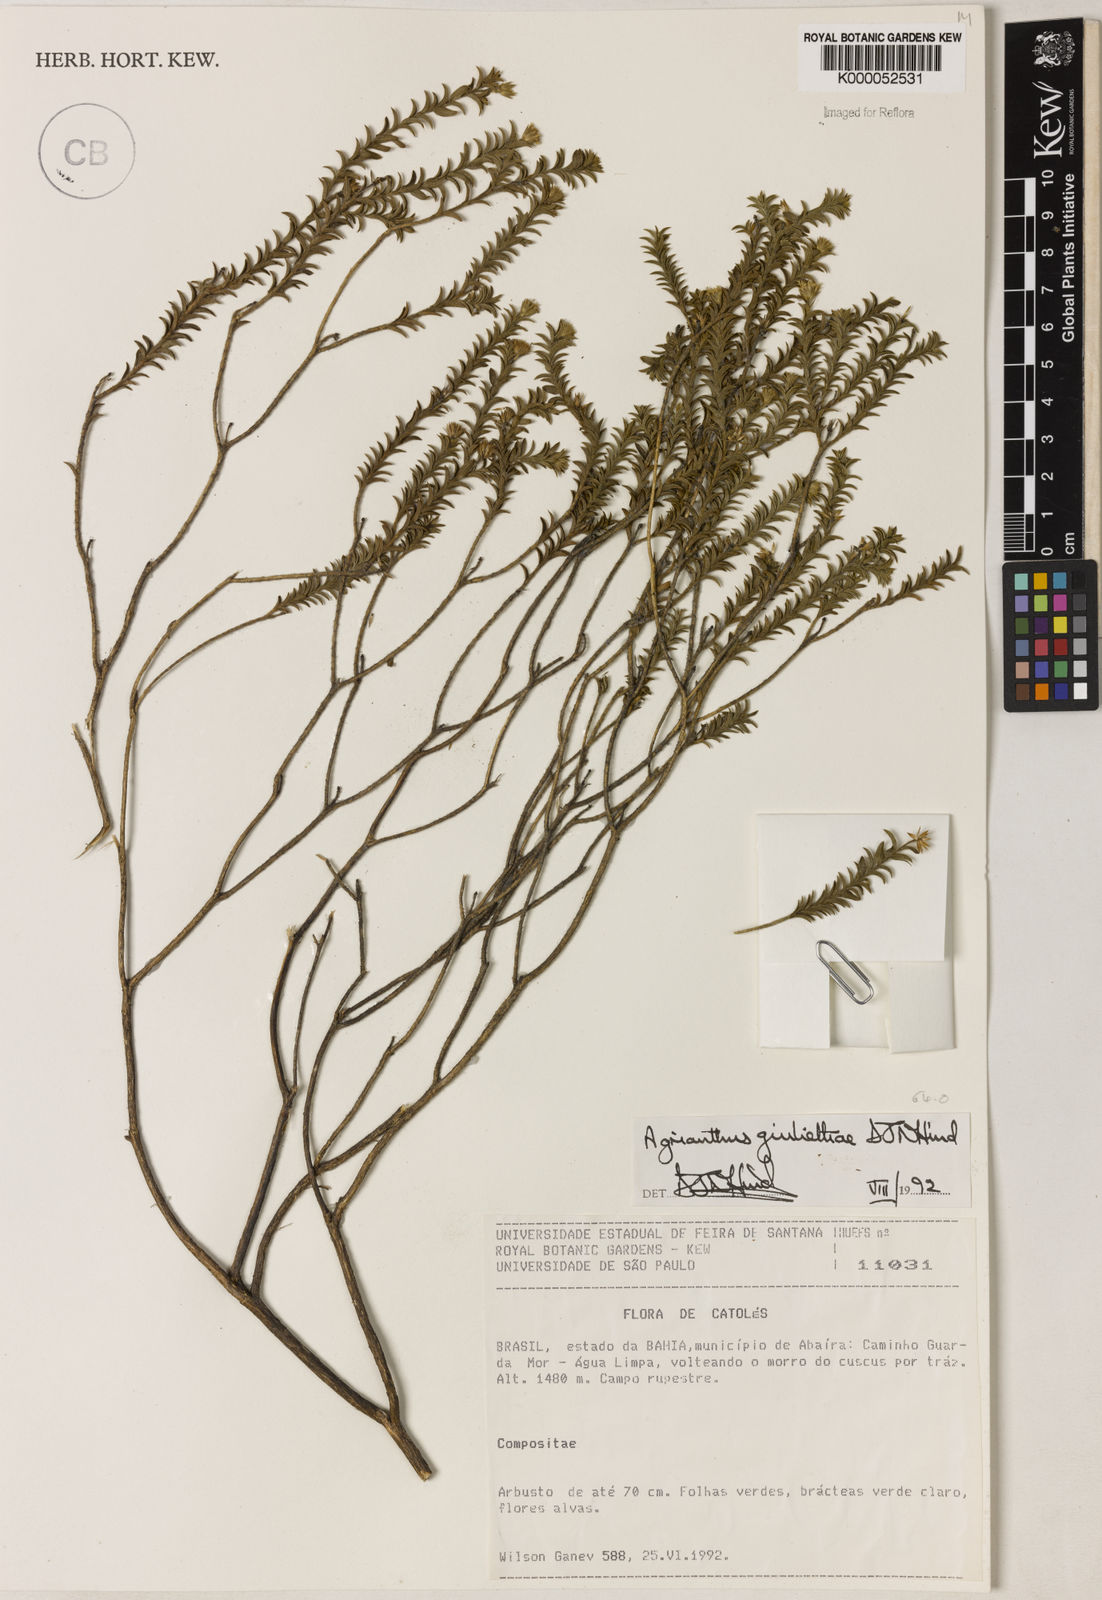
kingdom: Plantae
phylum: Tracheophyta
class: Magnoliopsida
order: Asterales
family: Asteraceae
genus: Agrianthus
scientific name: Agrianthus giuliettiae
